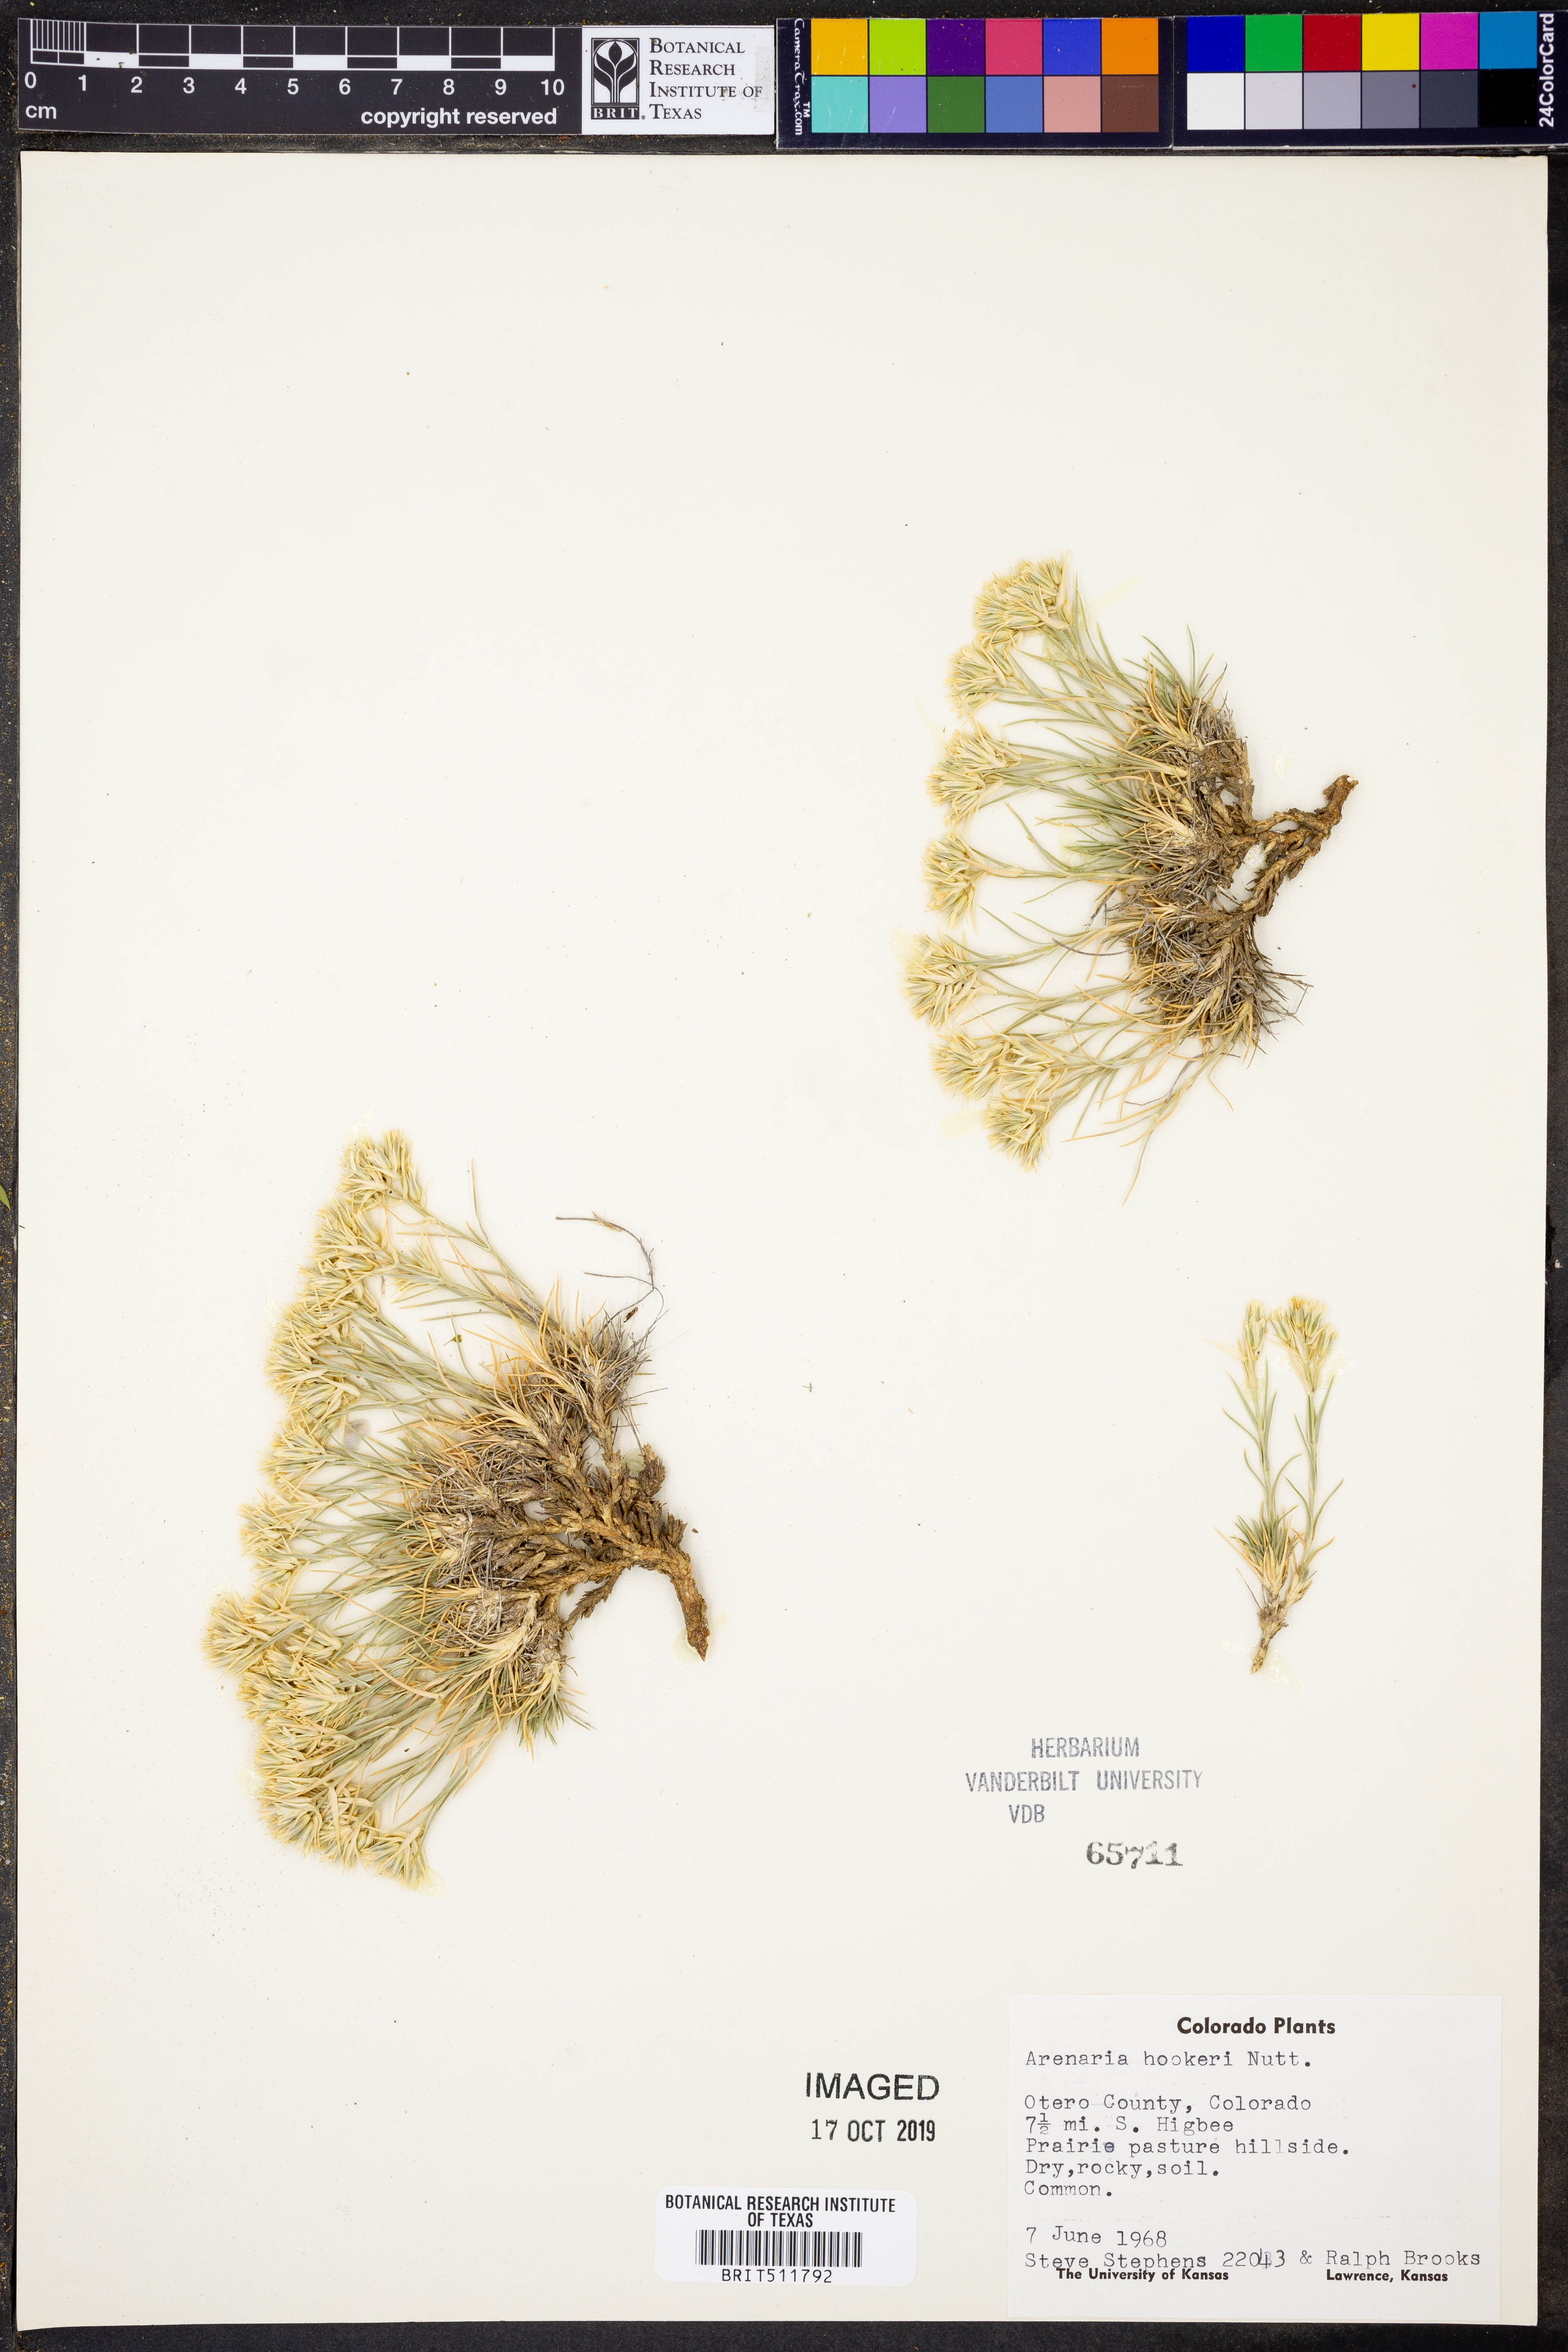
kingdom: Plantae
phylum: Tracheophyta
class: Magnoliopsida
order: Caryophyllales
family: Caryophyllaceae
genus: Eremogone
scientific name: Eremogone hookeri
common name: Hooker's sandwort
